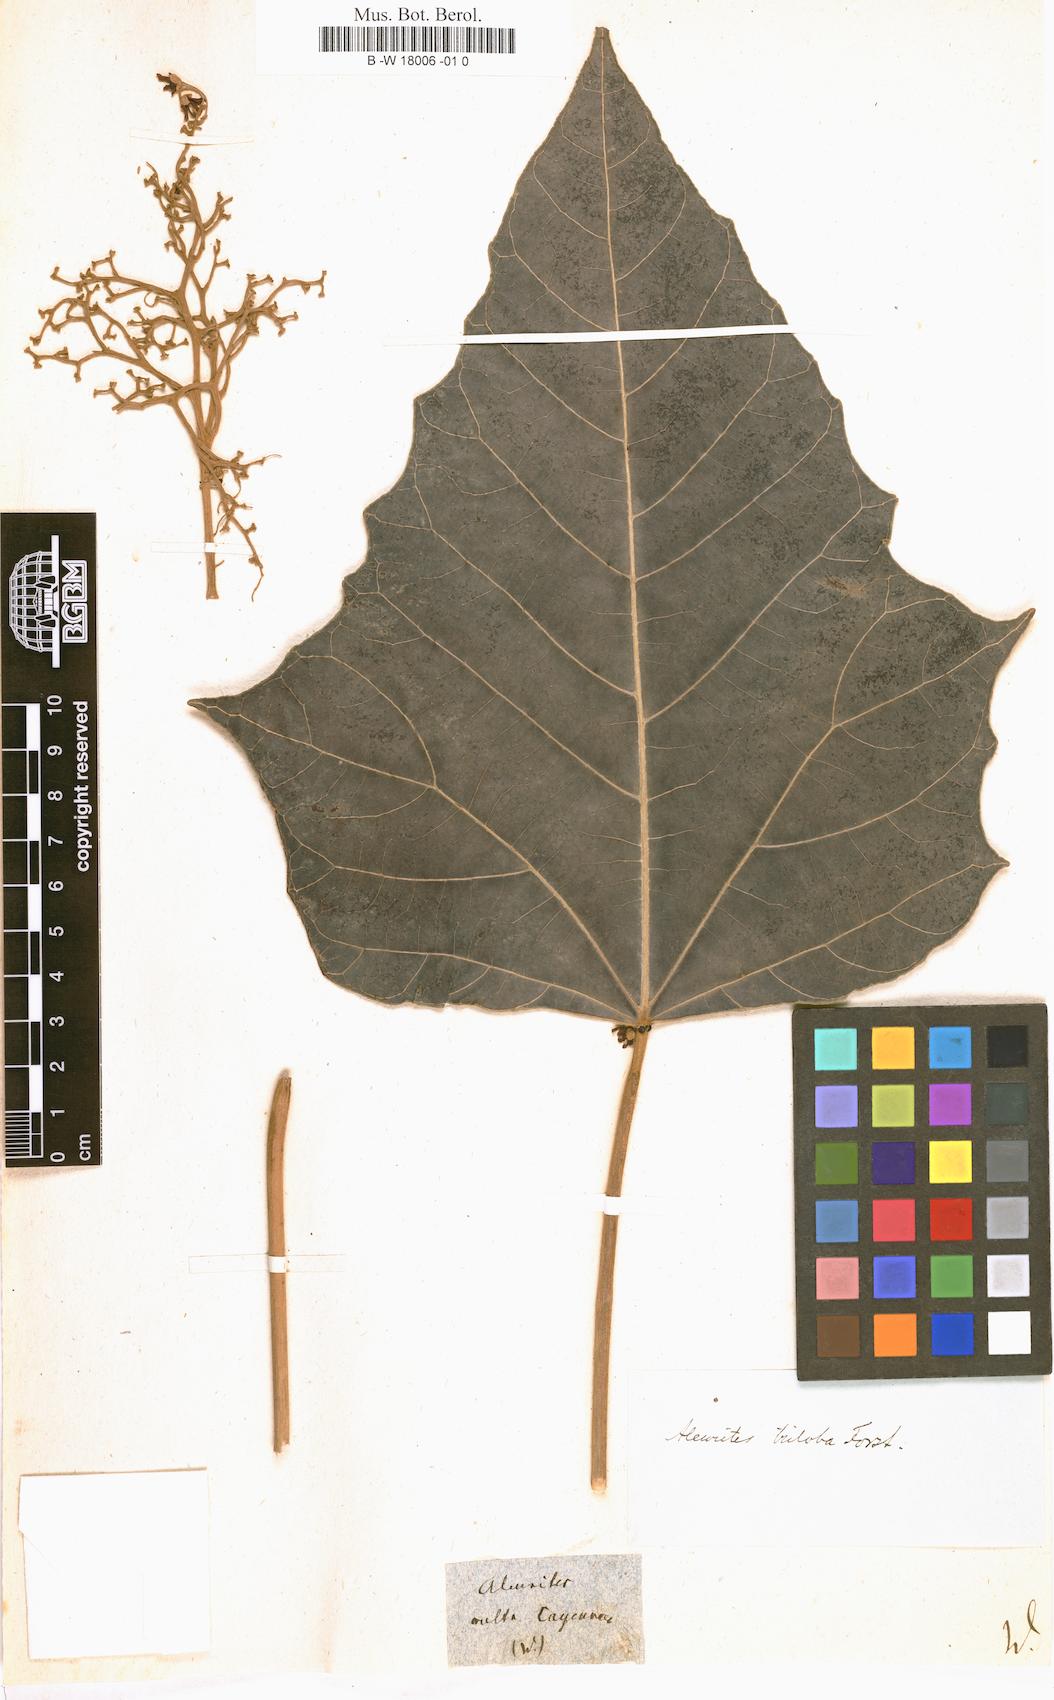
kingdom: Plantae
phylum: Tracheophyta
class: Magnoliopsida
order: Malpighiales
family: Euphorbiaceae
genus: Aleurites
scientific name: Aleurites
